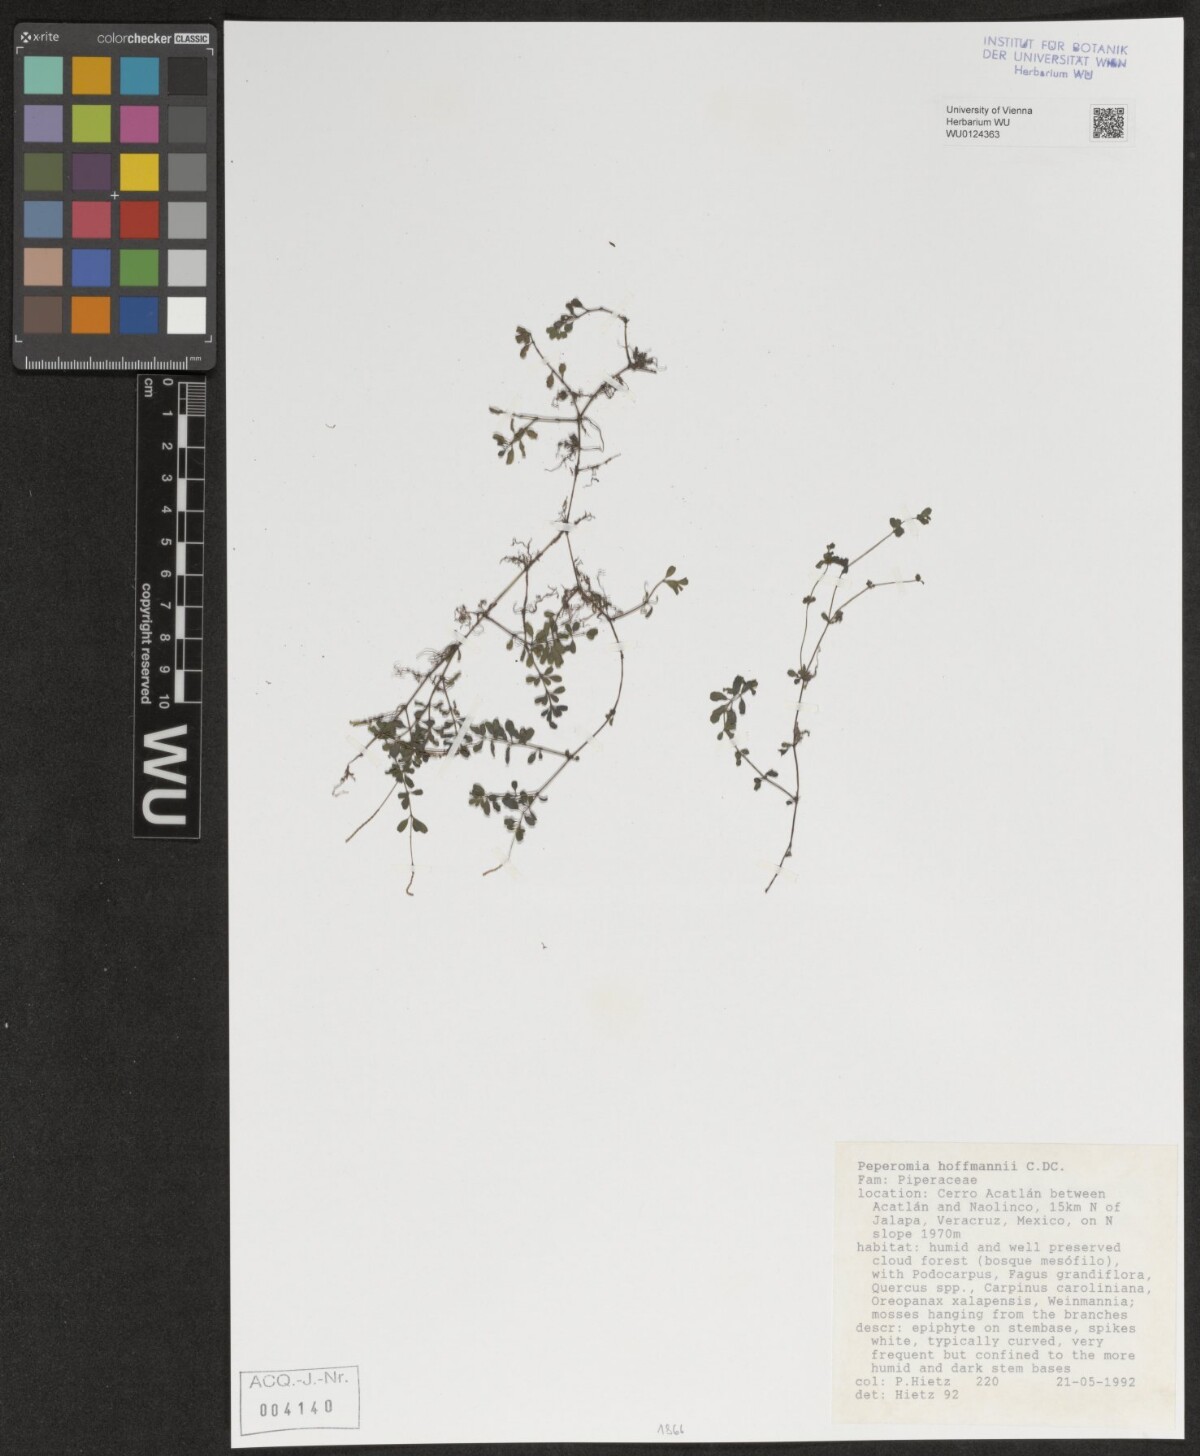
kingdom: Plantae
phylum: Tracheophyta
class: Magnoliopsida
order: Piperales
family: Piperaceae
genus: Peperomia
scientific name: Peperomia hoffmannii
